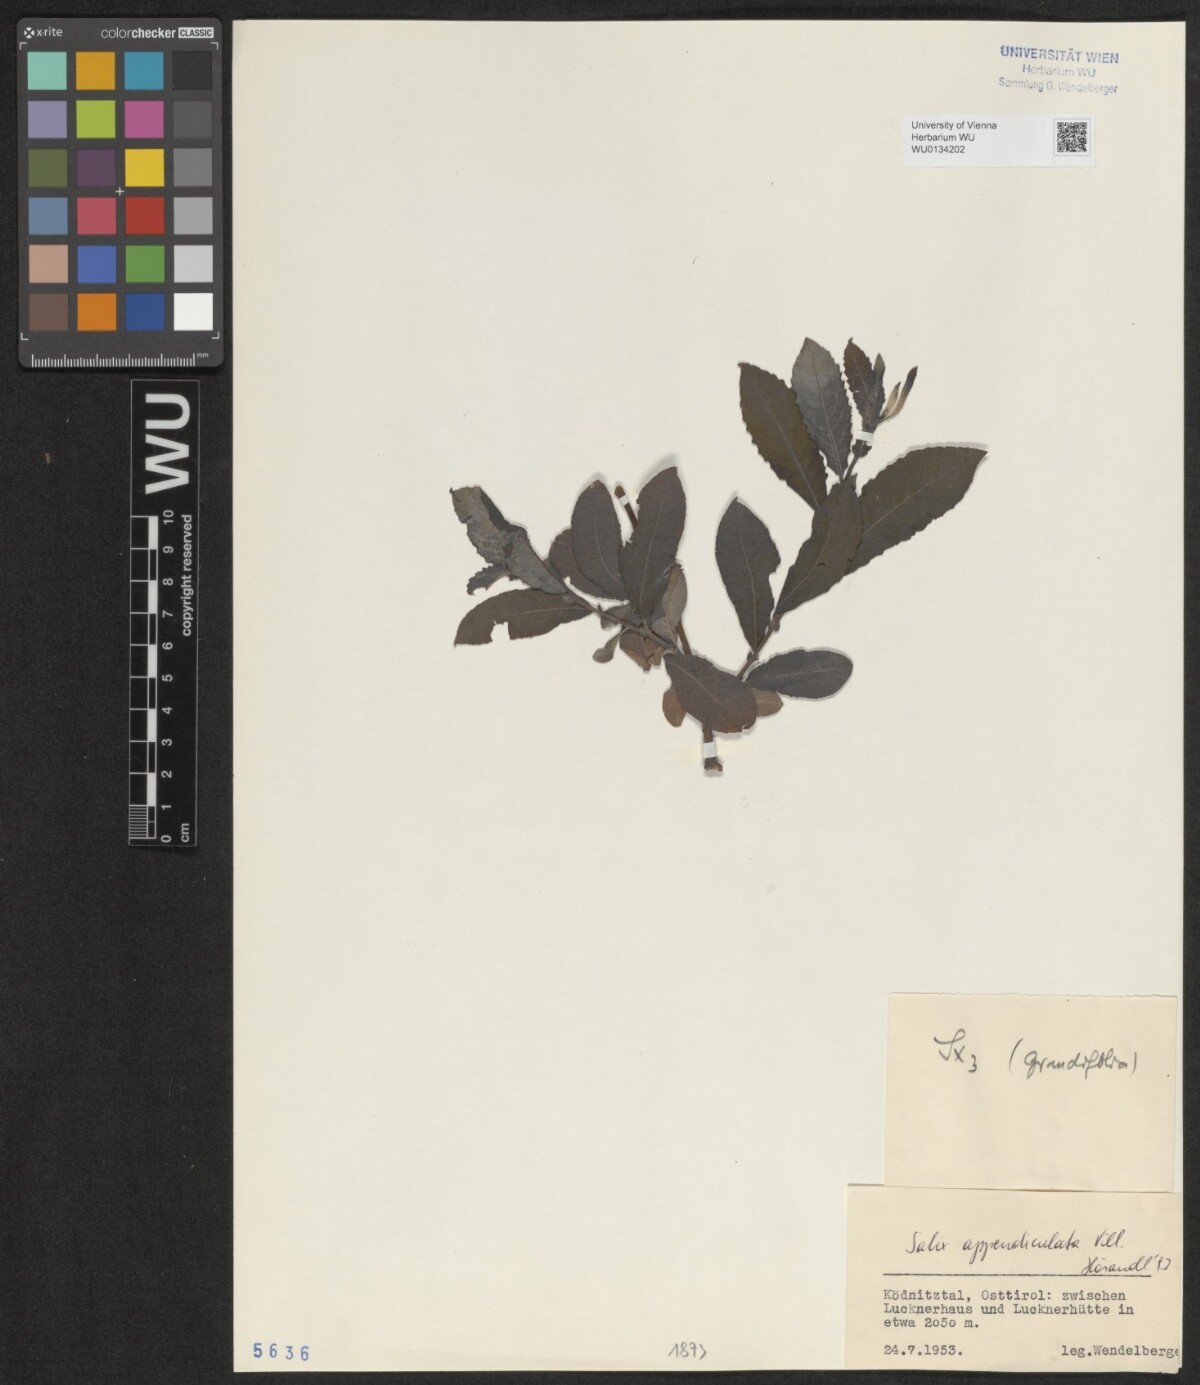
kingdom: Plantae
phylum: Tracheophyta
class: Magnoliopsida
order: Malpighiales
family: Salicaceae
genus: Salix
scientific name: Salix appendiculata
